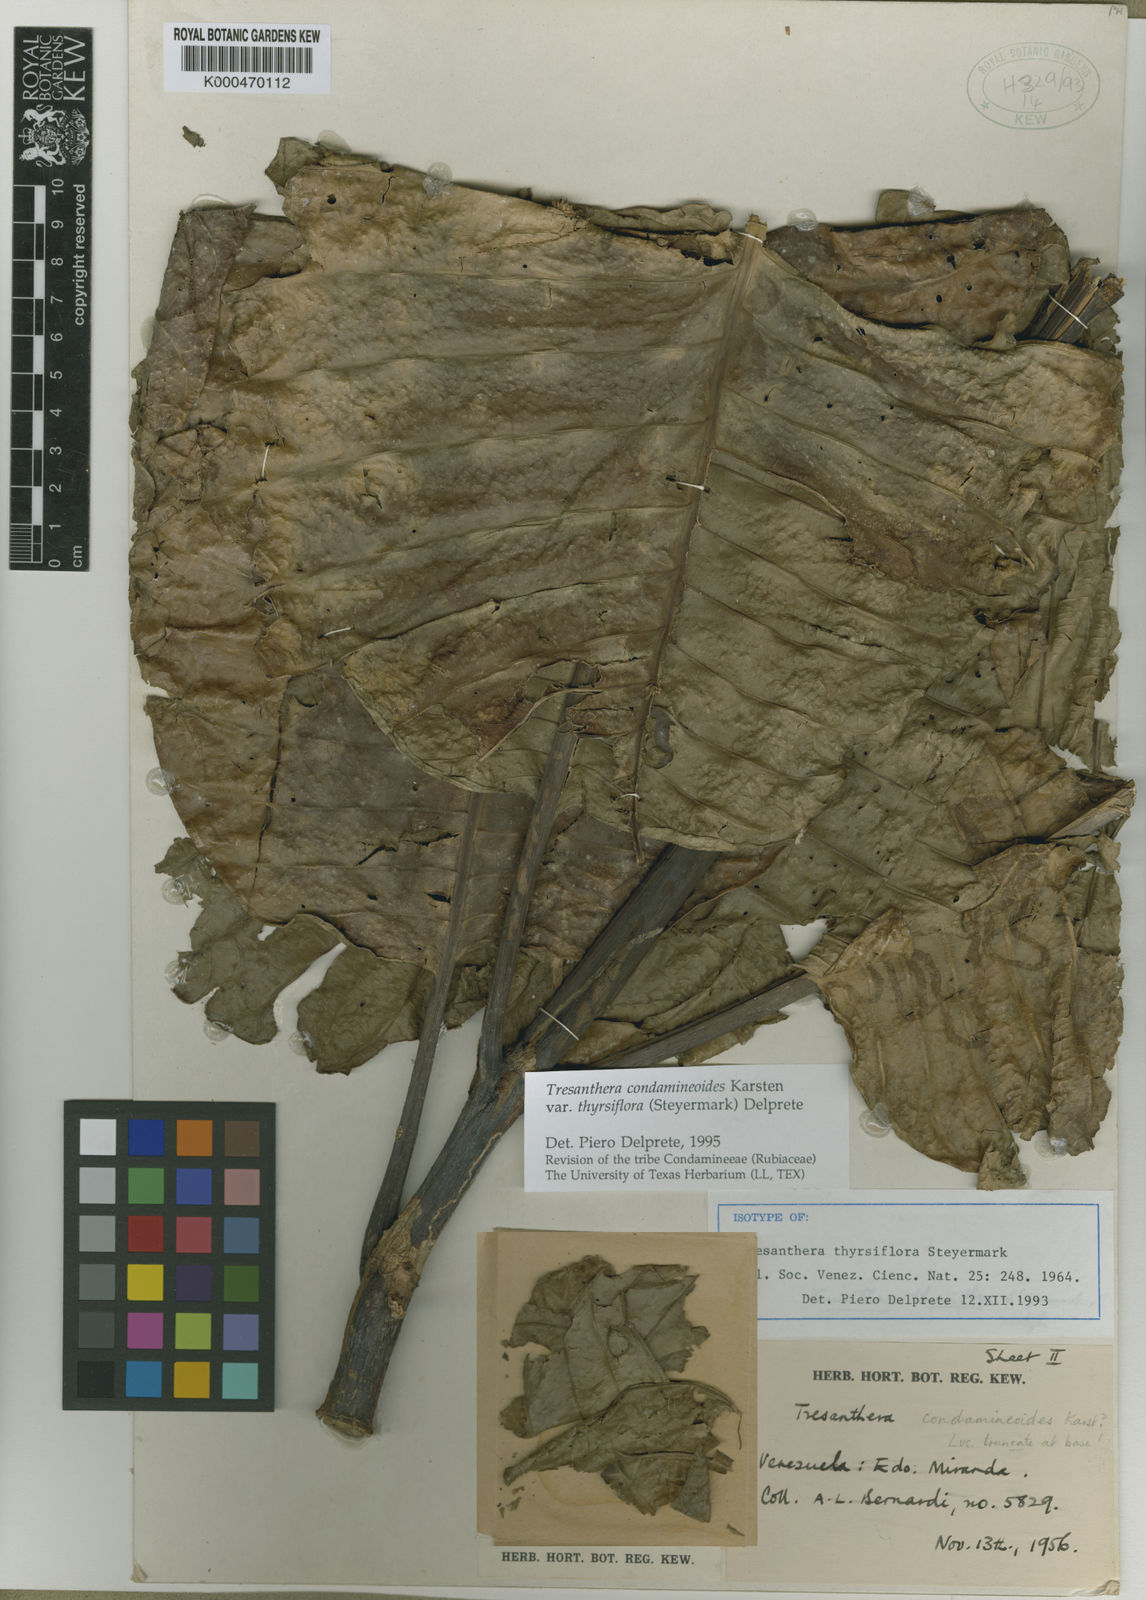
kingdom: Plantae
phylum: Tracheophyta
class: Magnoliopsida
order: Gentianales
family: Rubiaceae
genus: Rustia
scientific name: Rustia condamineoides
